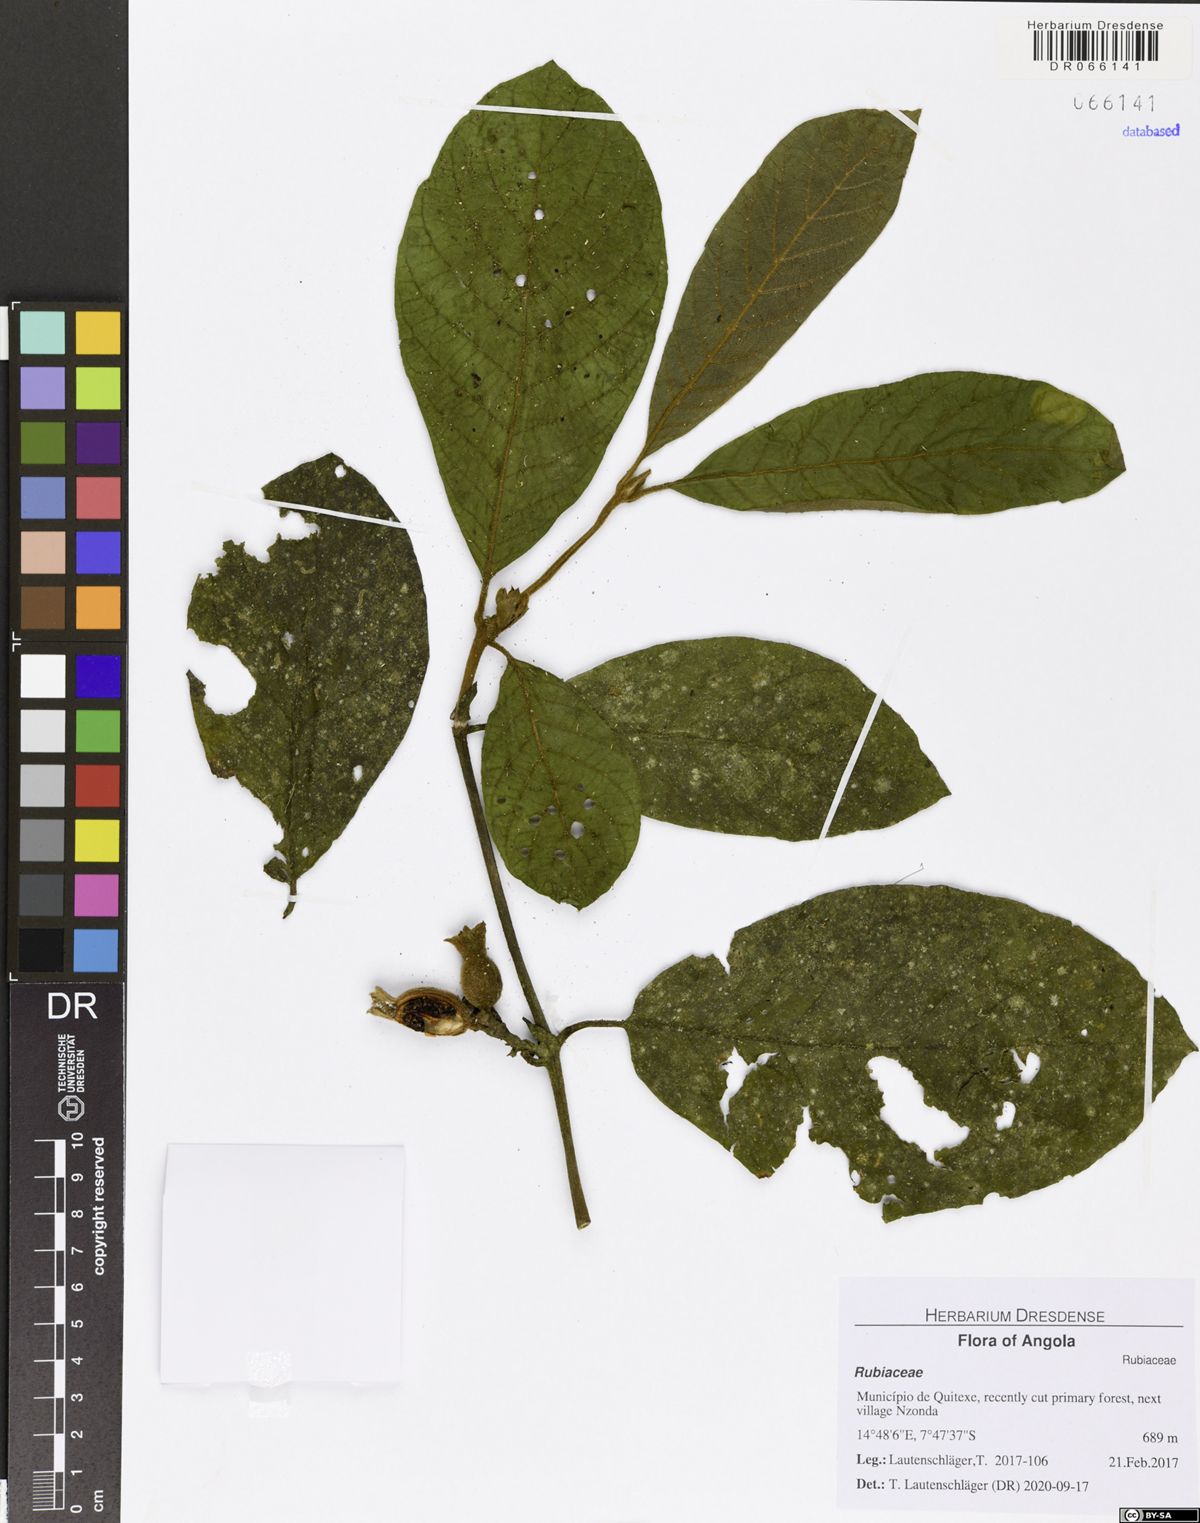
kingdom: Plantae
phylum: Tracheophyta
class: Magnoliopsida
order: Gentianales
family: Rubiaceae
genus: Aoranthe
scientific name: Aoranthe castaneofulva
